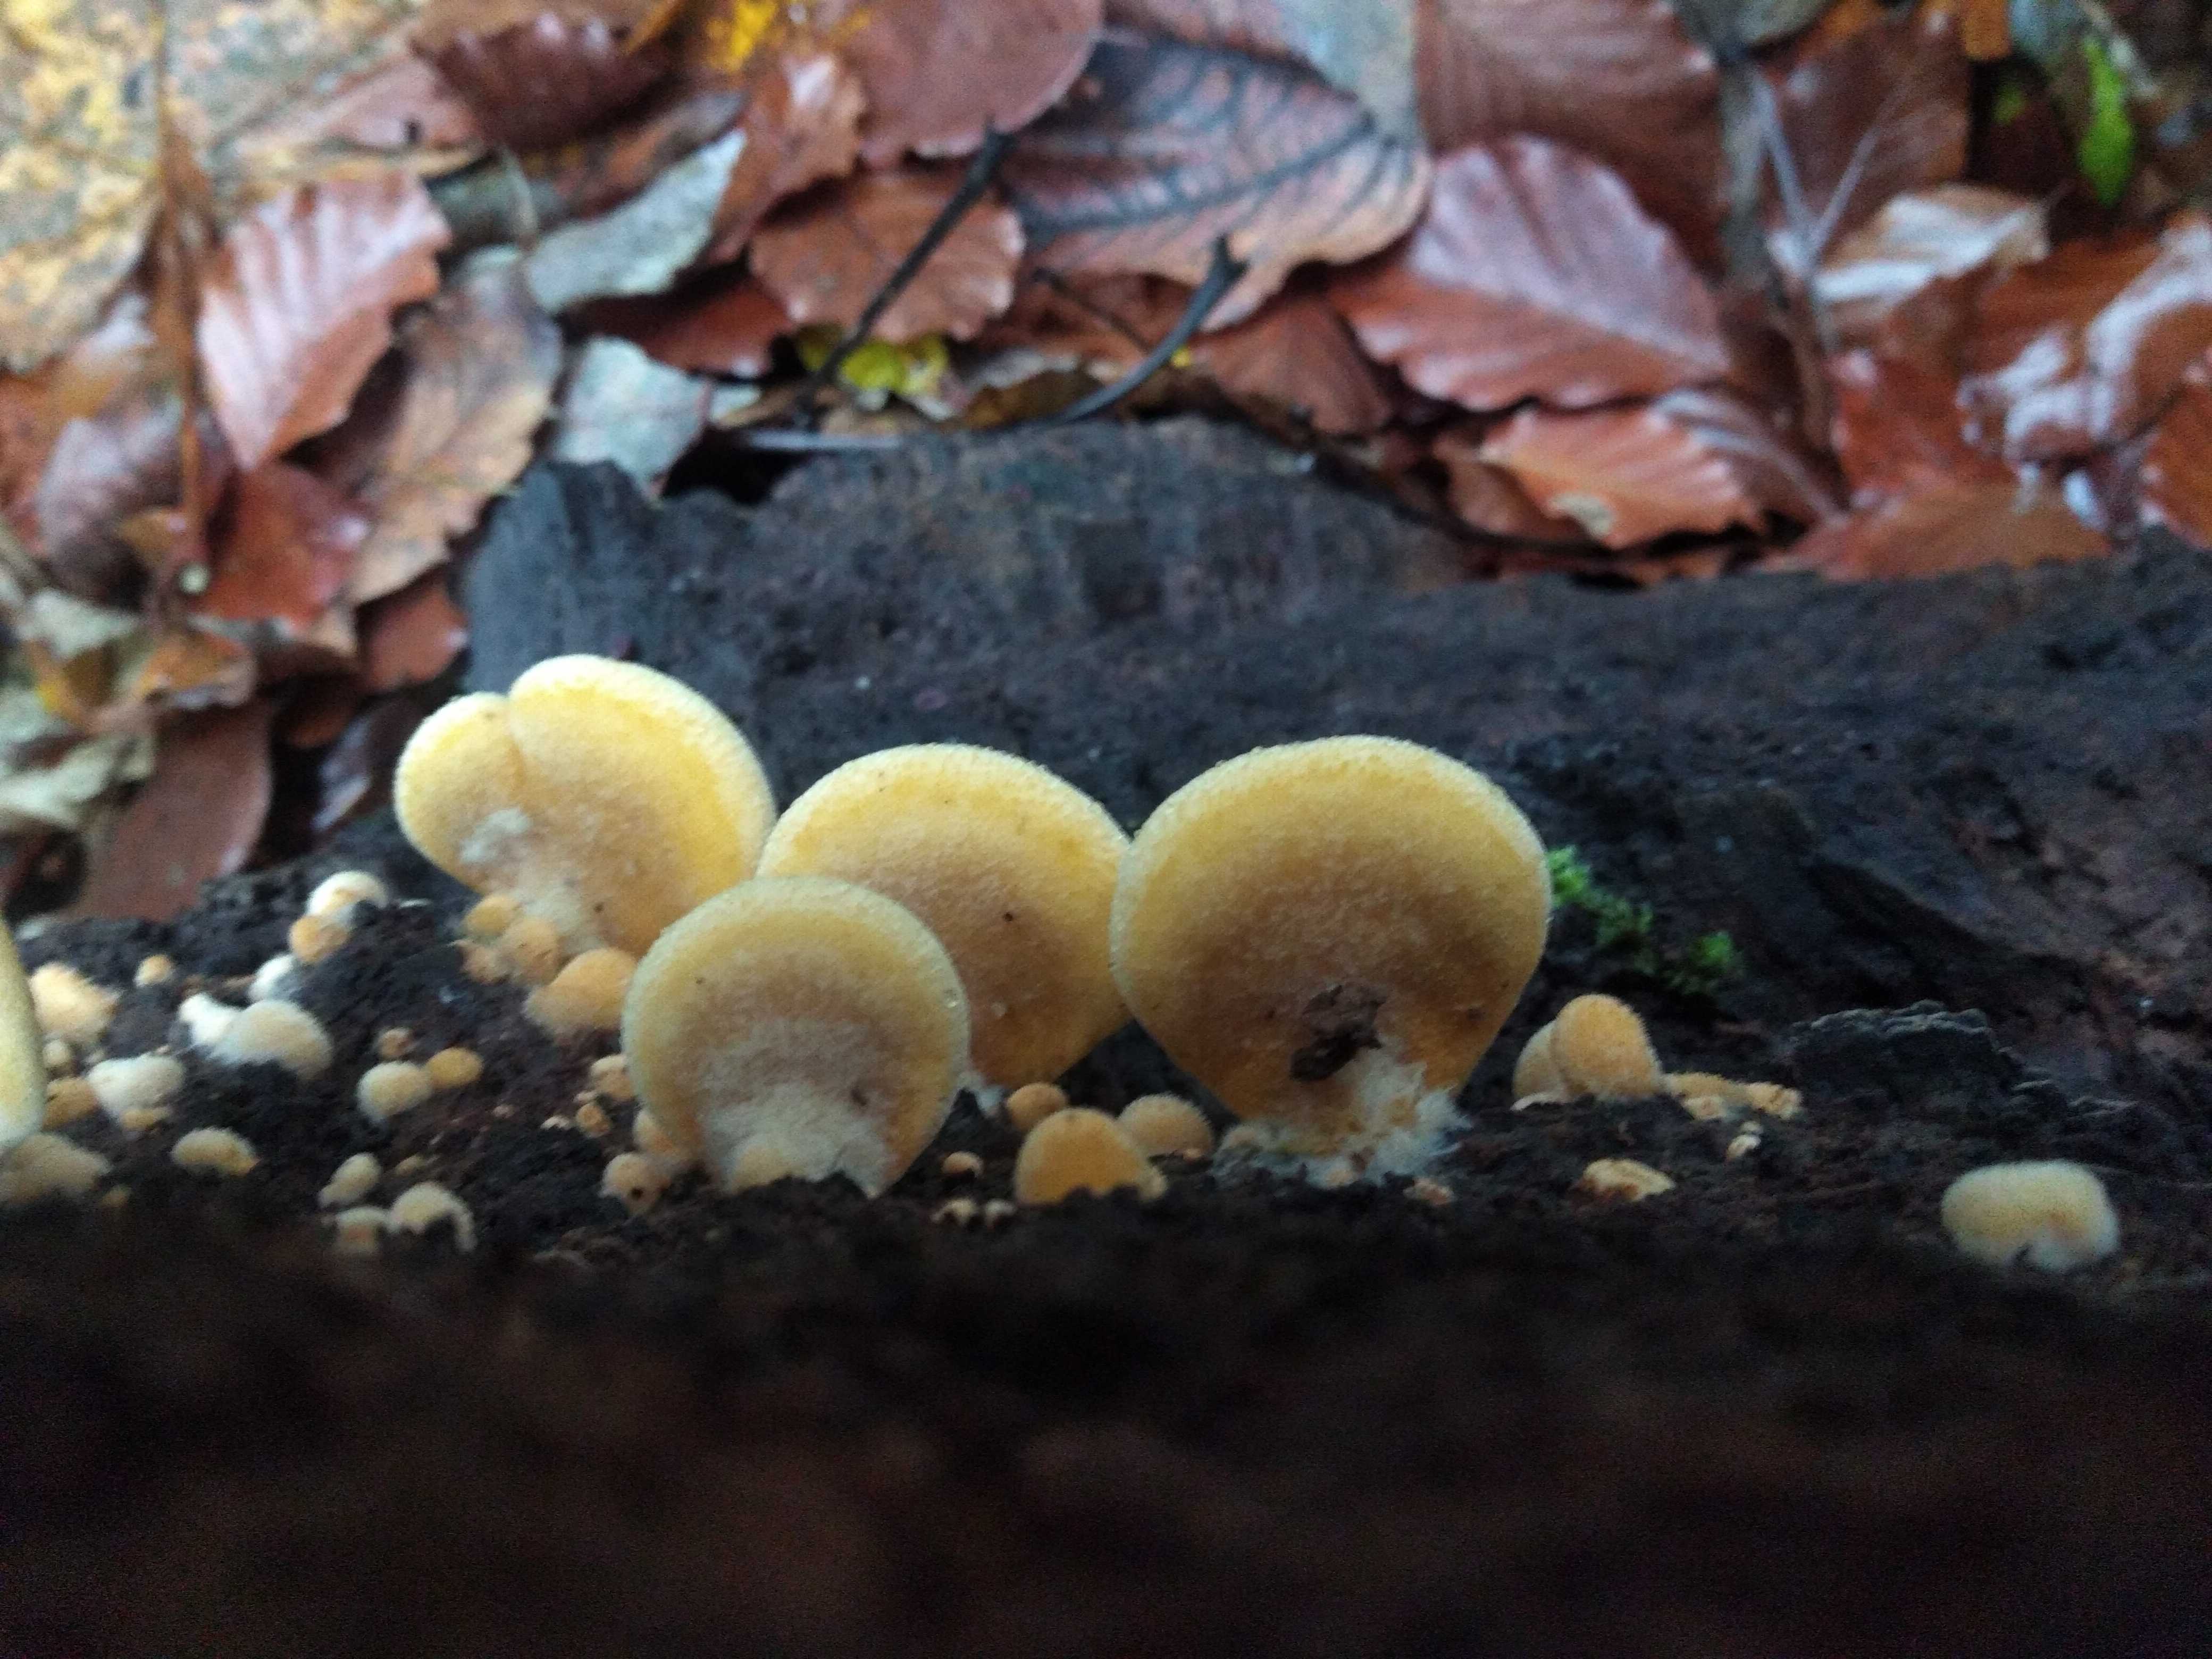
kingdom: Fungi
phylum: Basidiomycota
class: Agaricomycetes
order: Agaricales
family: Phyllotopsidaceae
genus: Phyllotopsis
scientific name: Phyllotopsis nidulans
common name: okkerblad
